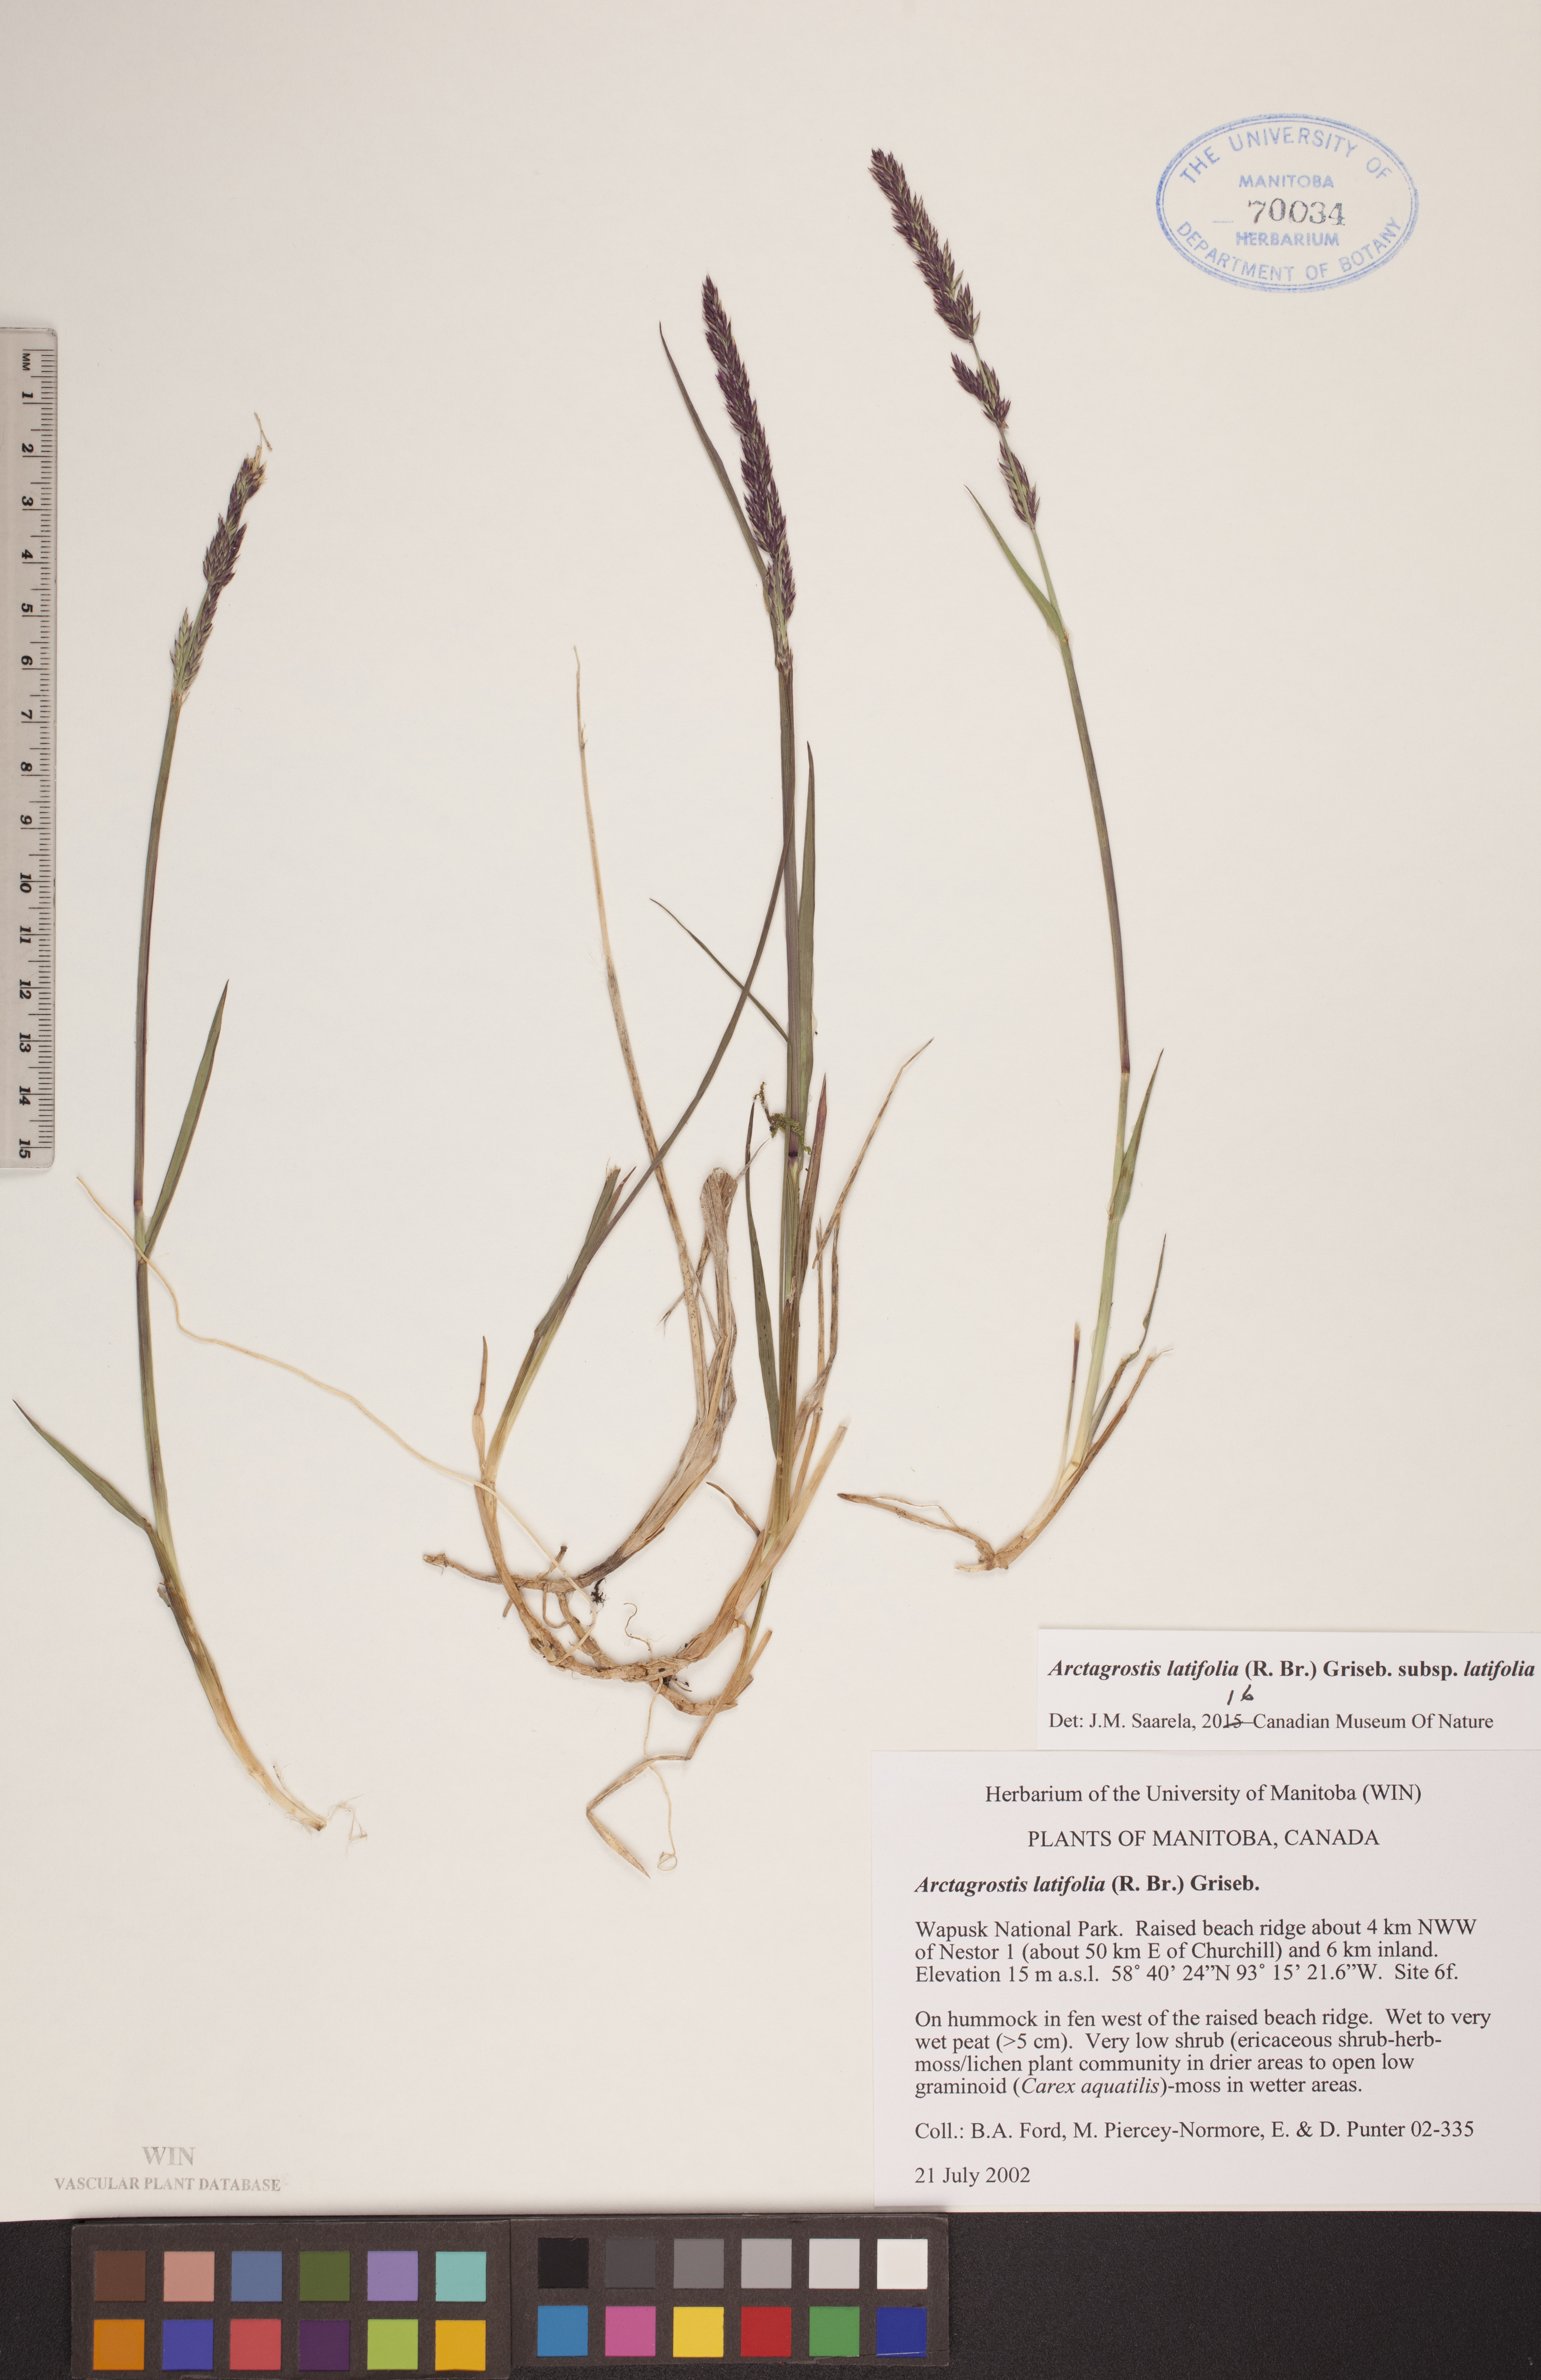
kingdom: Plantae
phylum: Tracheophyta
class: Liliopsida
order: Poales
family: Poaceae
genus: Arctagrostis
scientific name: Arctagrostis latifolia
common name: Arctic grass
